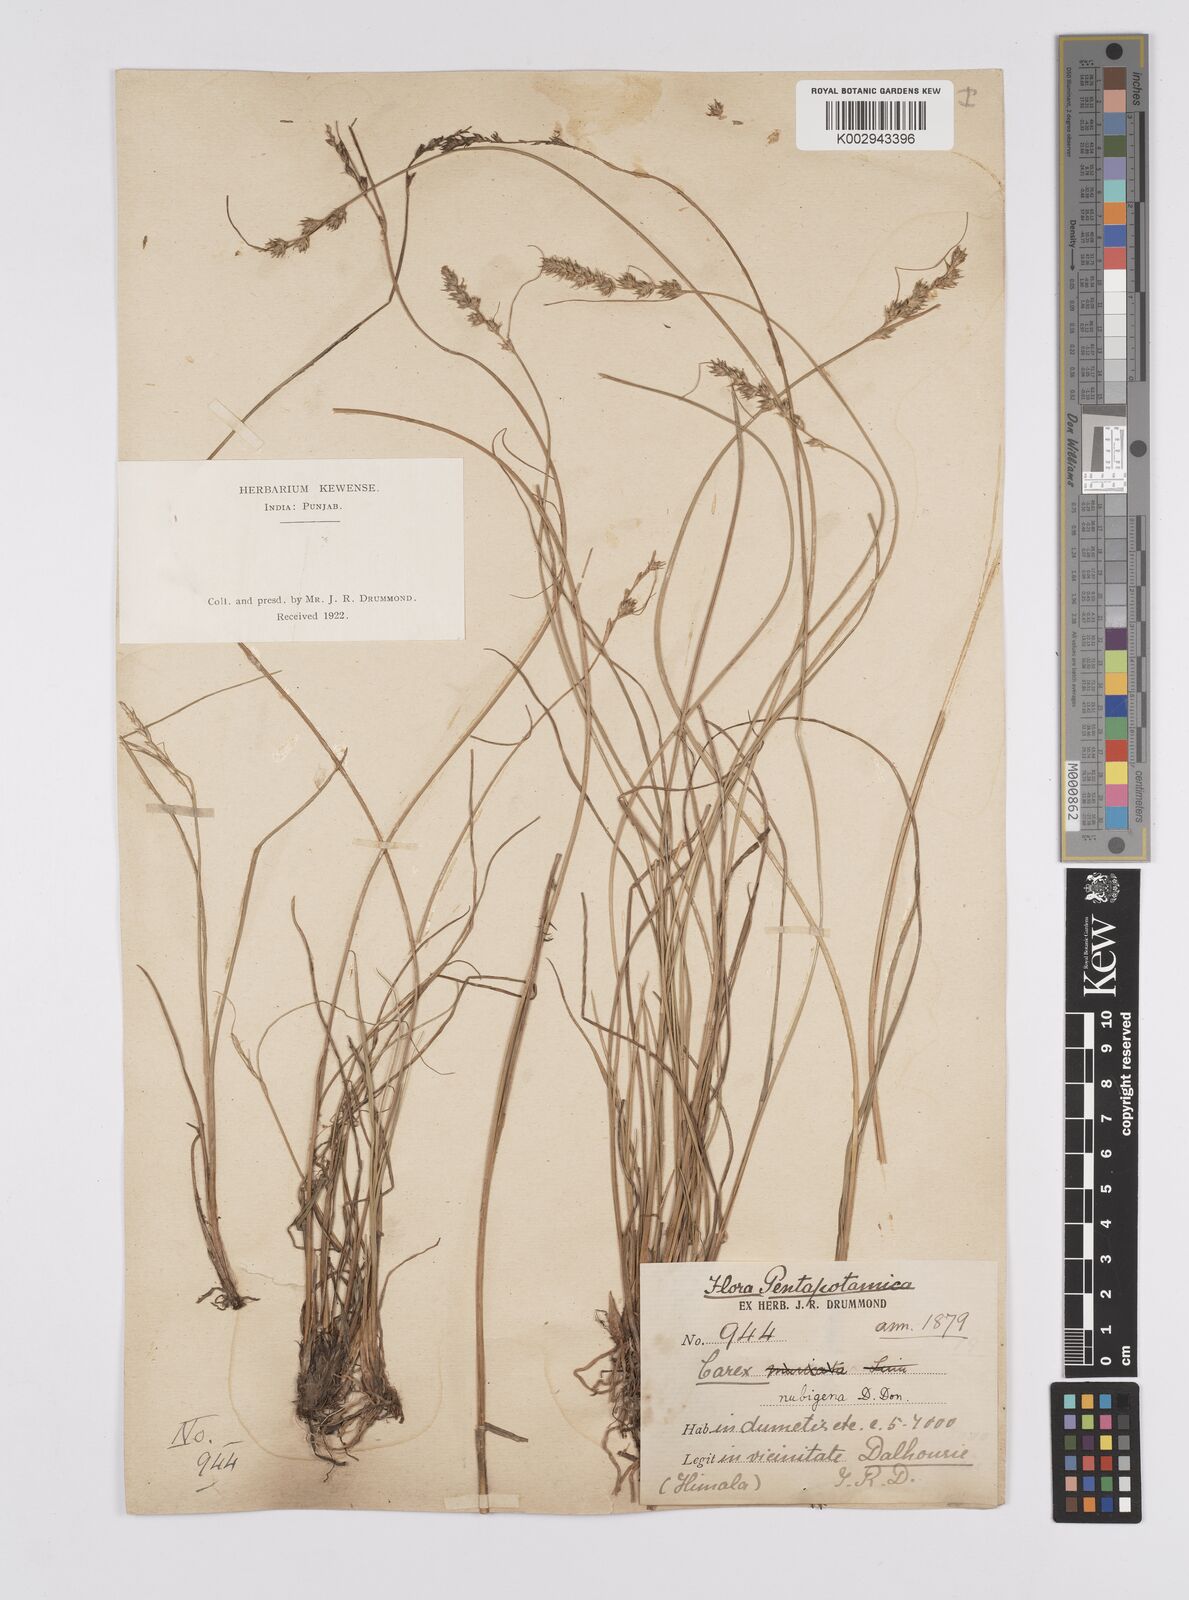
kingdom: Plantae
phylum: Tracheophyta
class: Liliopsida
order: Poales
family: Cyperaceae
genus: Carex
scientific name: Carex nubigena
